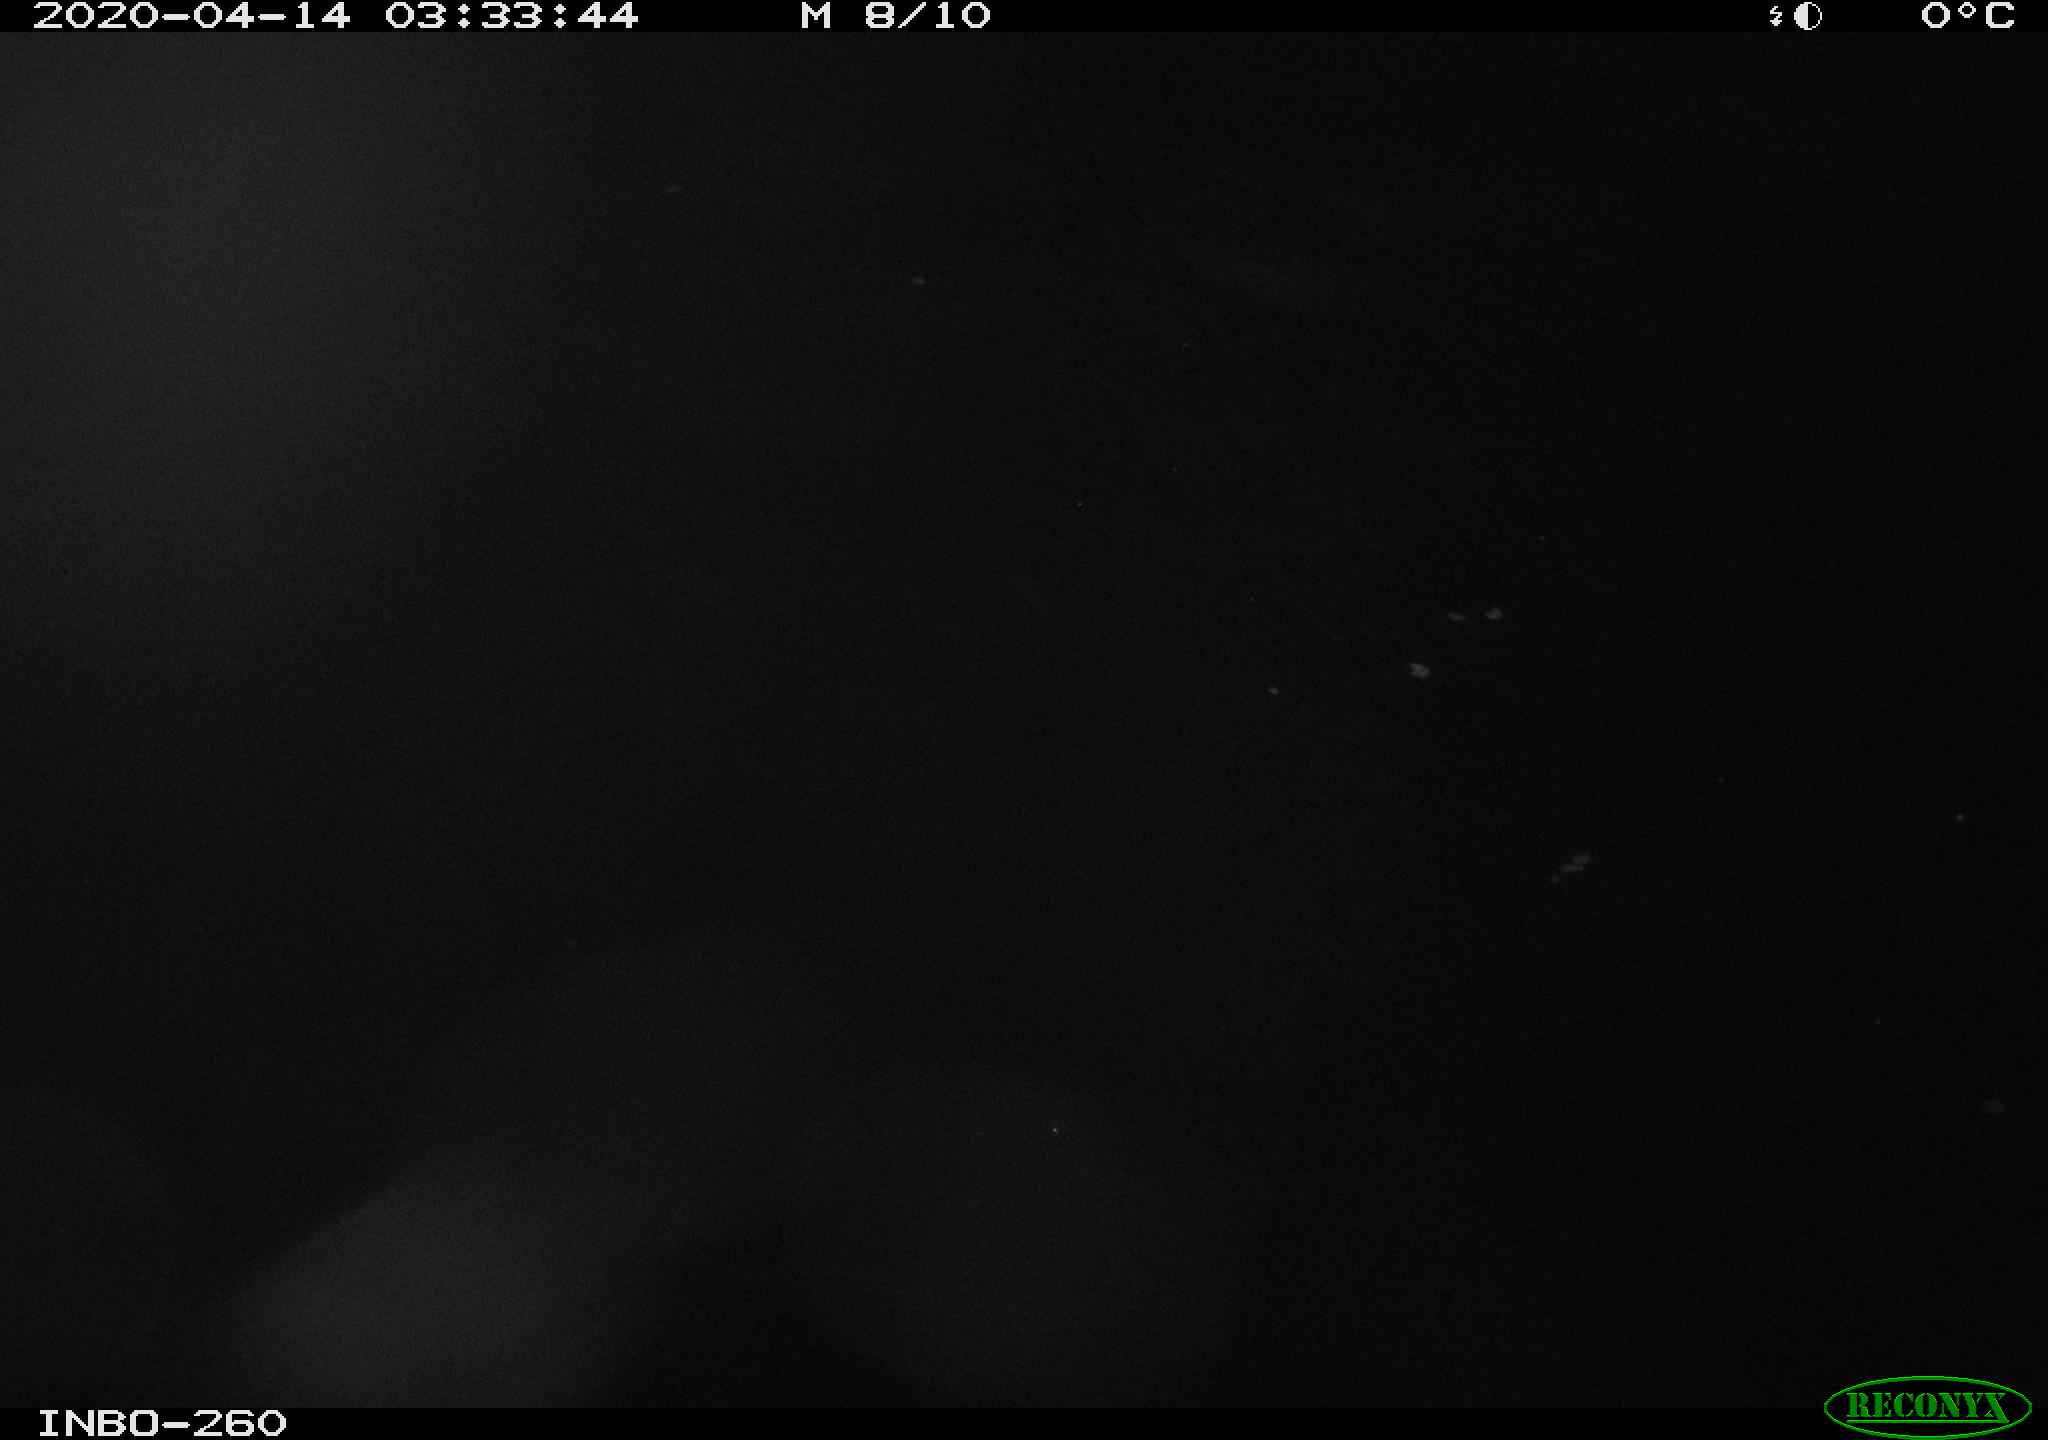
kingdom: Animalia
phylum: Chordata
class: Aves
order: Anseriformes
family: Anatidae
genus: Anas
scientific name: Anas platyrhynchos
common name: Mallard
